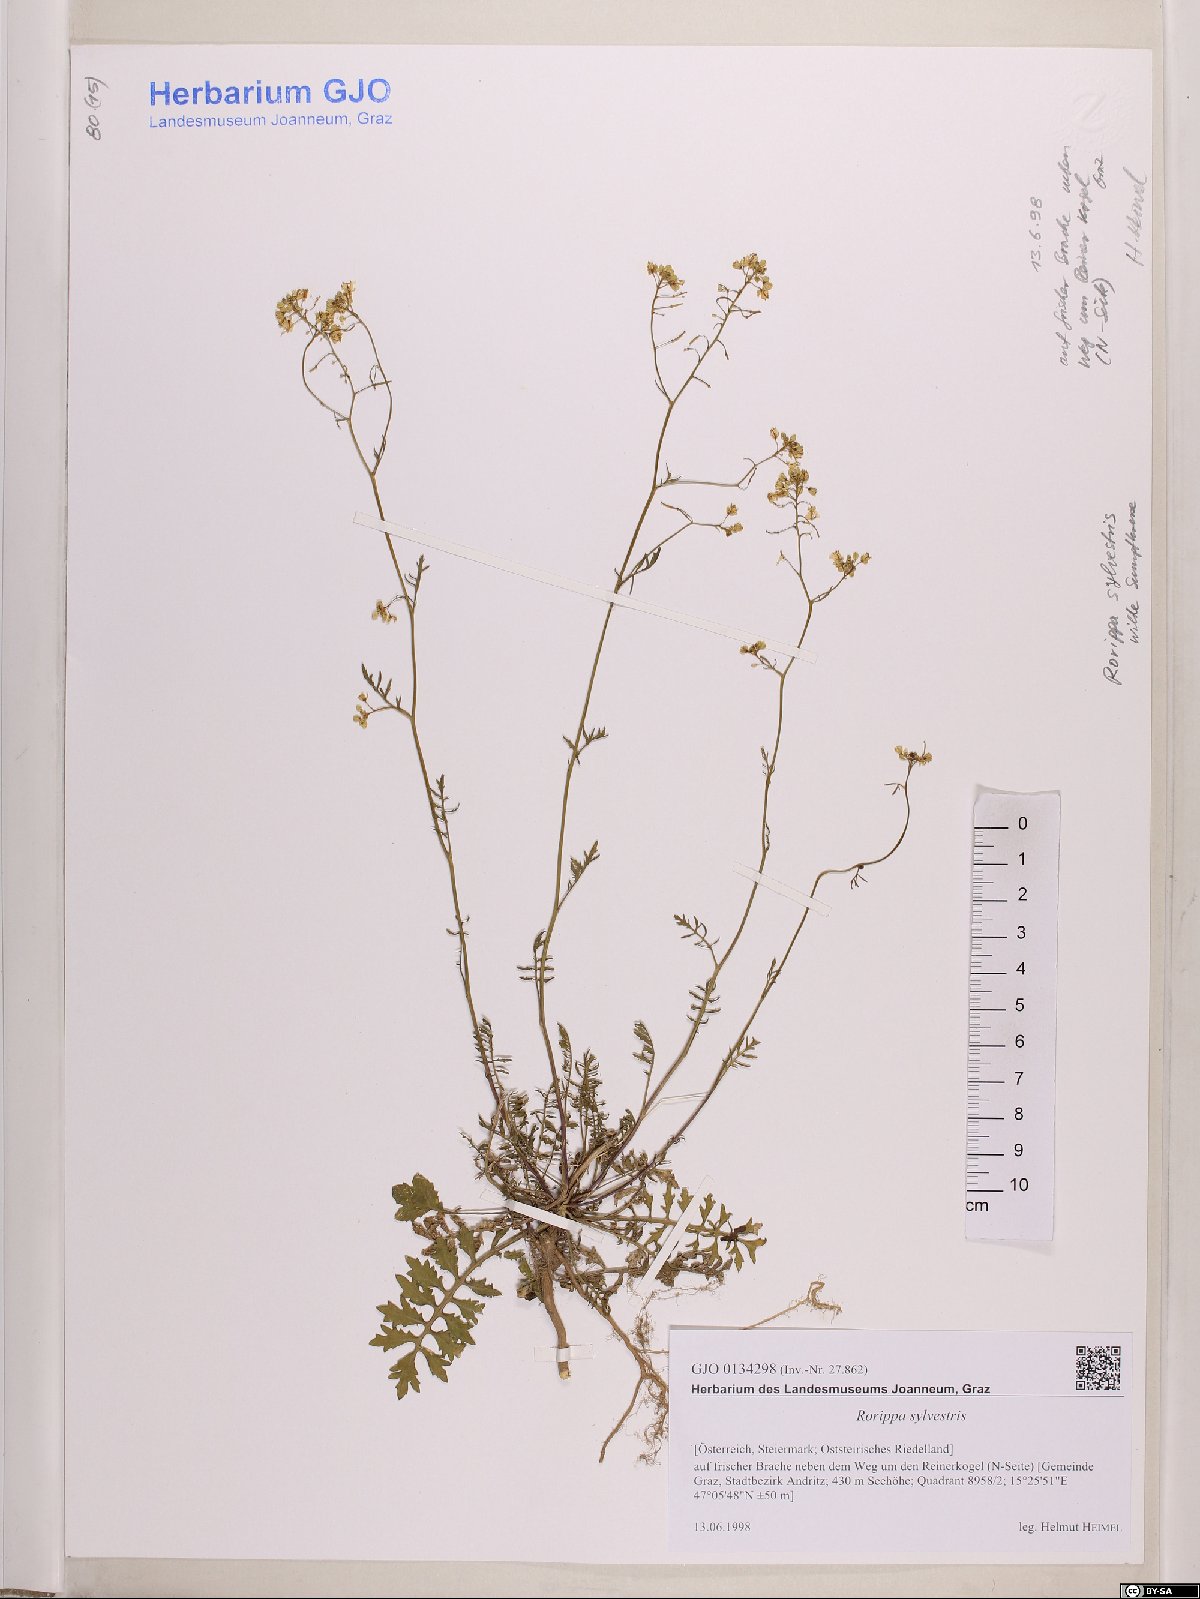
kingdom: Plantae
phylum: Tracheophyta
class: Magnoliopsida
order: Brassicales
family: Brassicaceae
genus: Rorippa
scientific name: Rorippa sylvestris
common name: Creeping yellowcress
